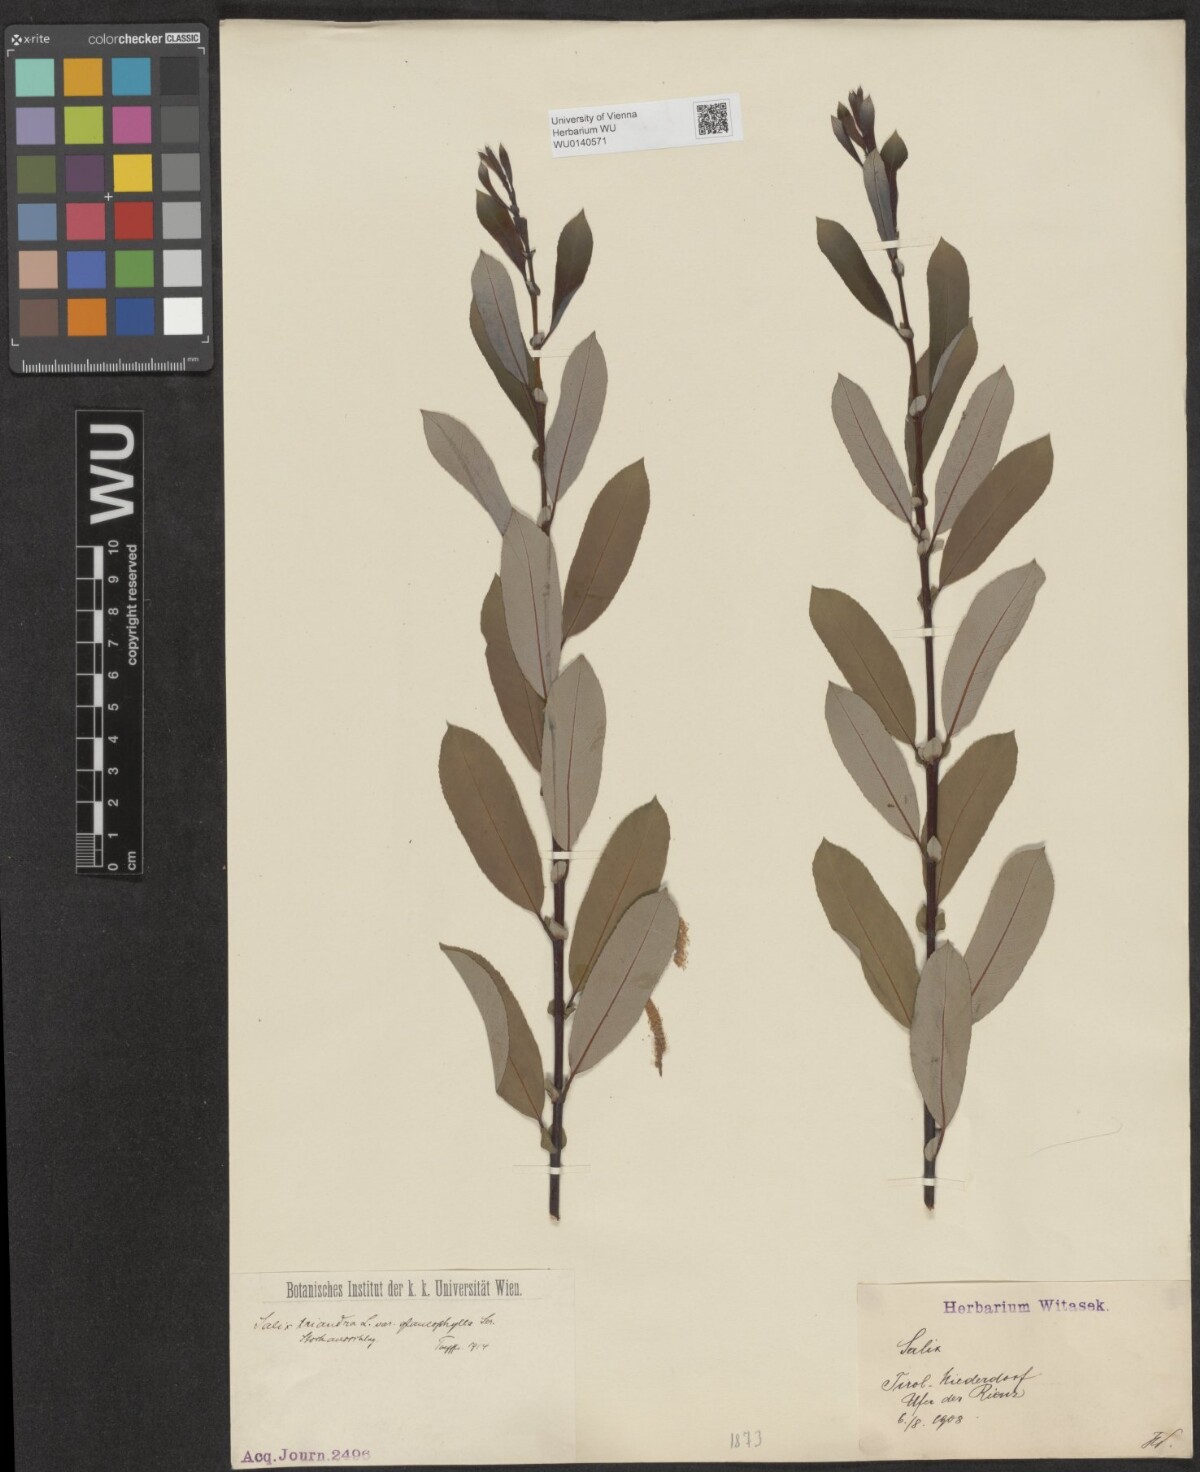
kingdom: Plantae
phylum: Tracheophyta
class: Magnoliopsida
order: Malpighiales
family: Salicaceae
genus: Salix
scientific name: Salix triandra
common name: Almond willow
